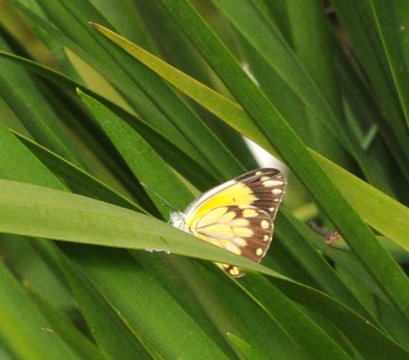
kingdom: Animalia
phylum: Arthropoda
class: Insecta
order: Lepidoptera
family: Pieridae
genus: Belenois
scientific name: Belenois creona
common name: African Caper
